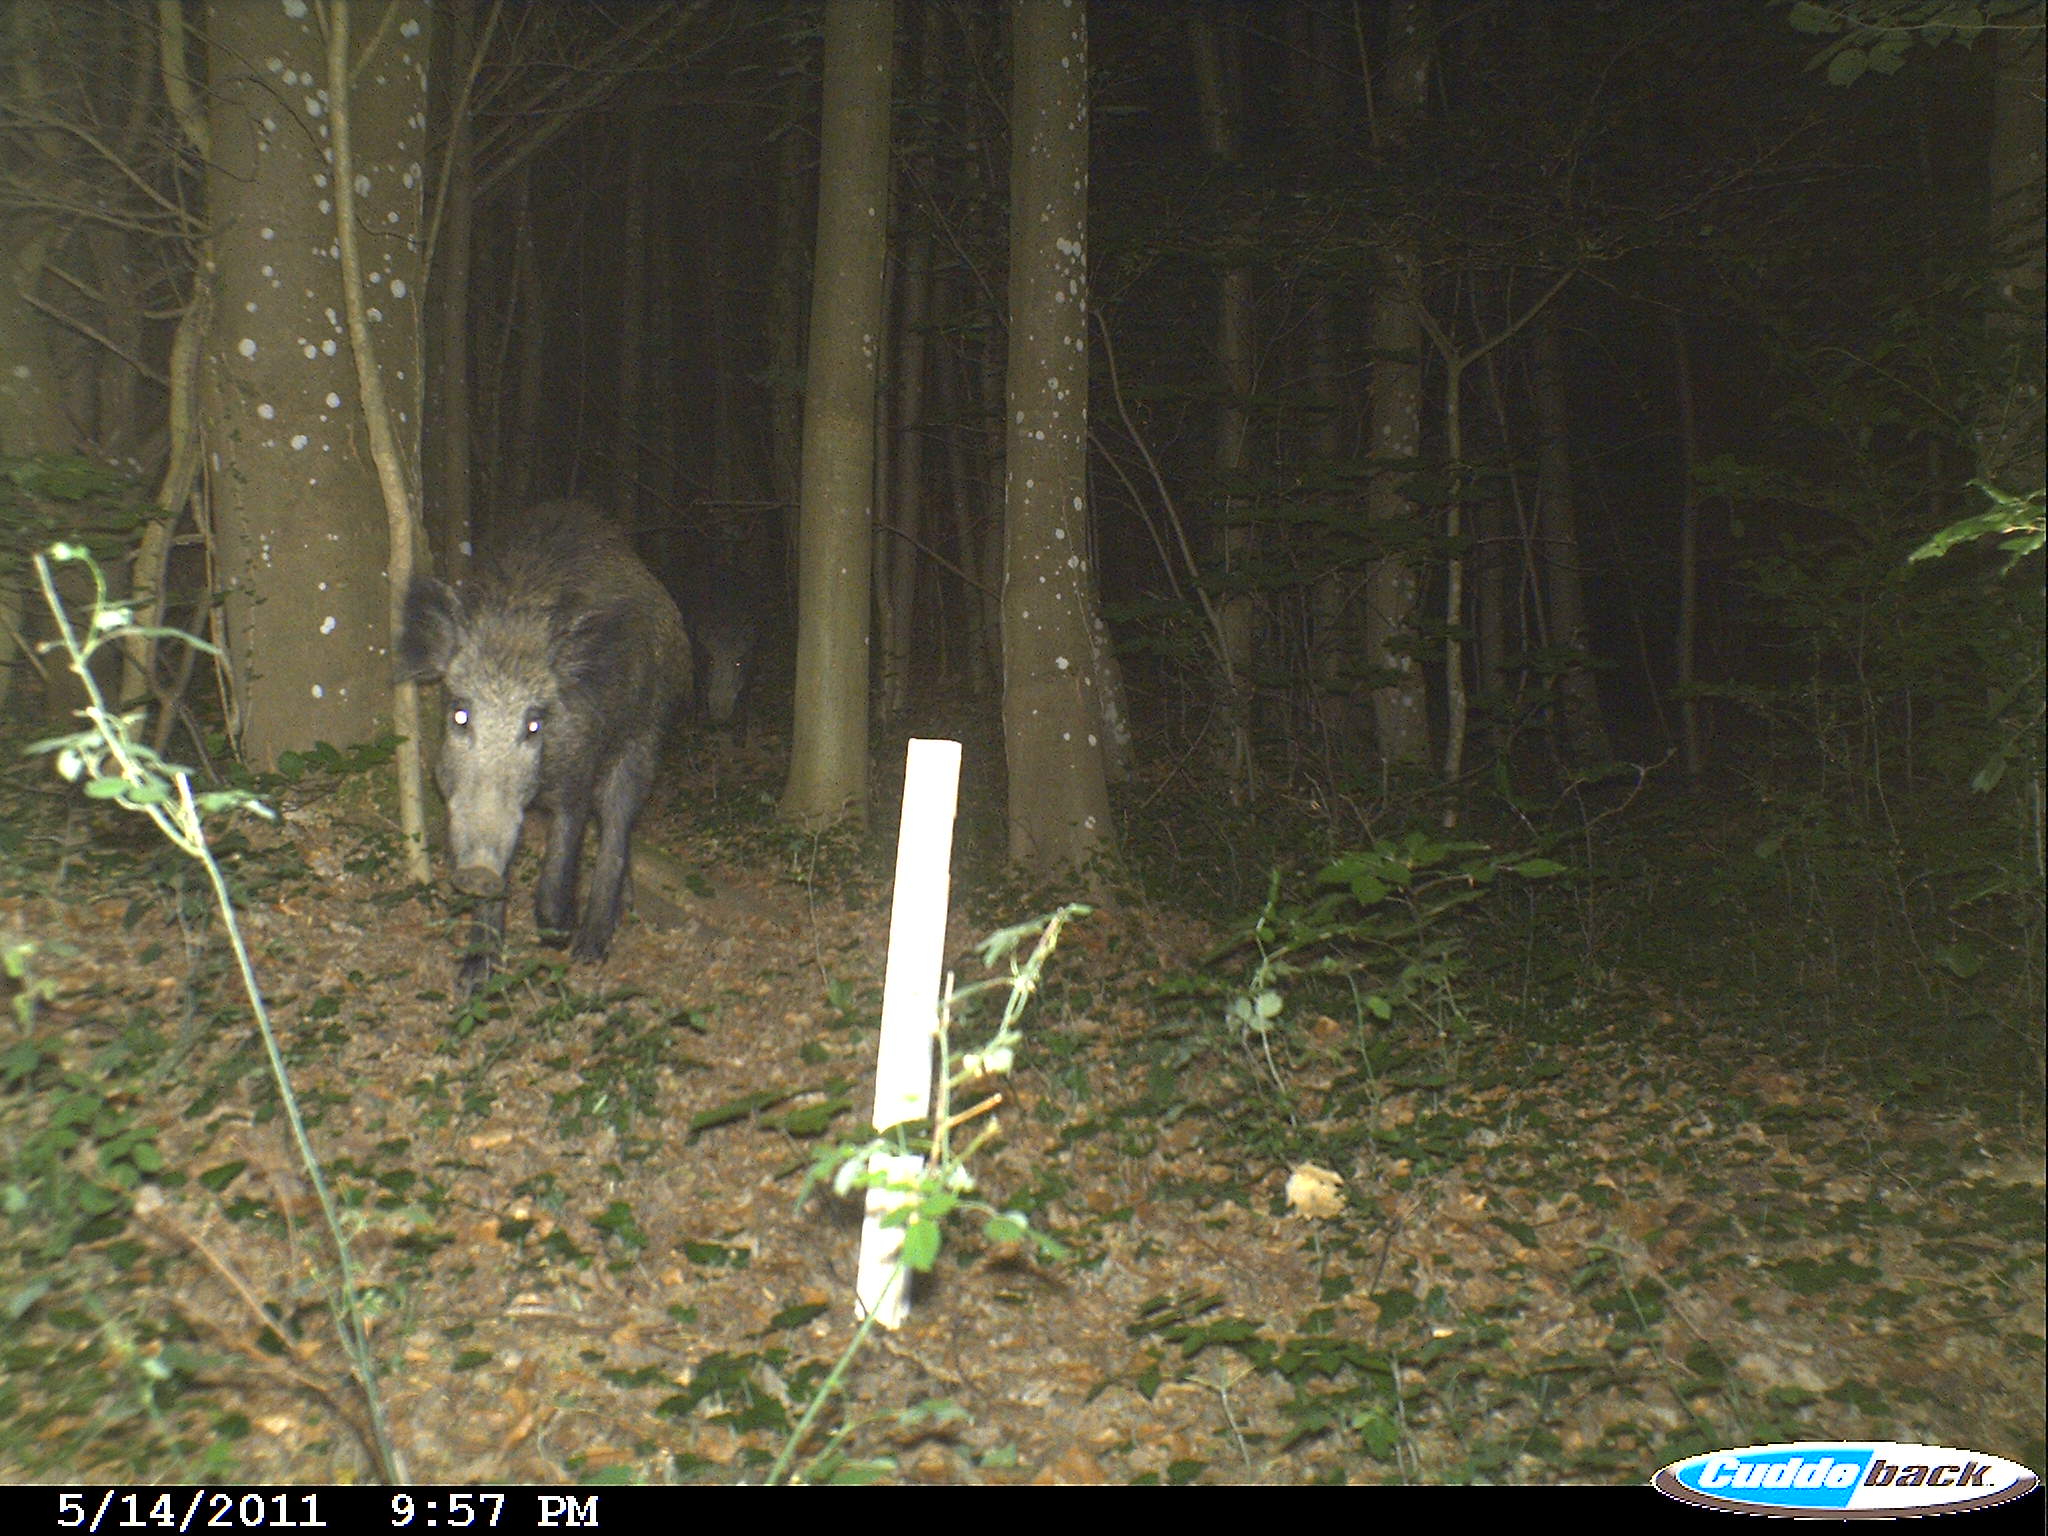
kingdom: Animalia
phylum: Chordata
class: Mammalia
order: Artiodactyla
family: Suidae
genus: Sus
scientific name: Sus scrofa
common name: Wild boar
